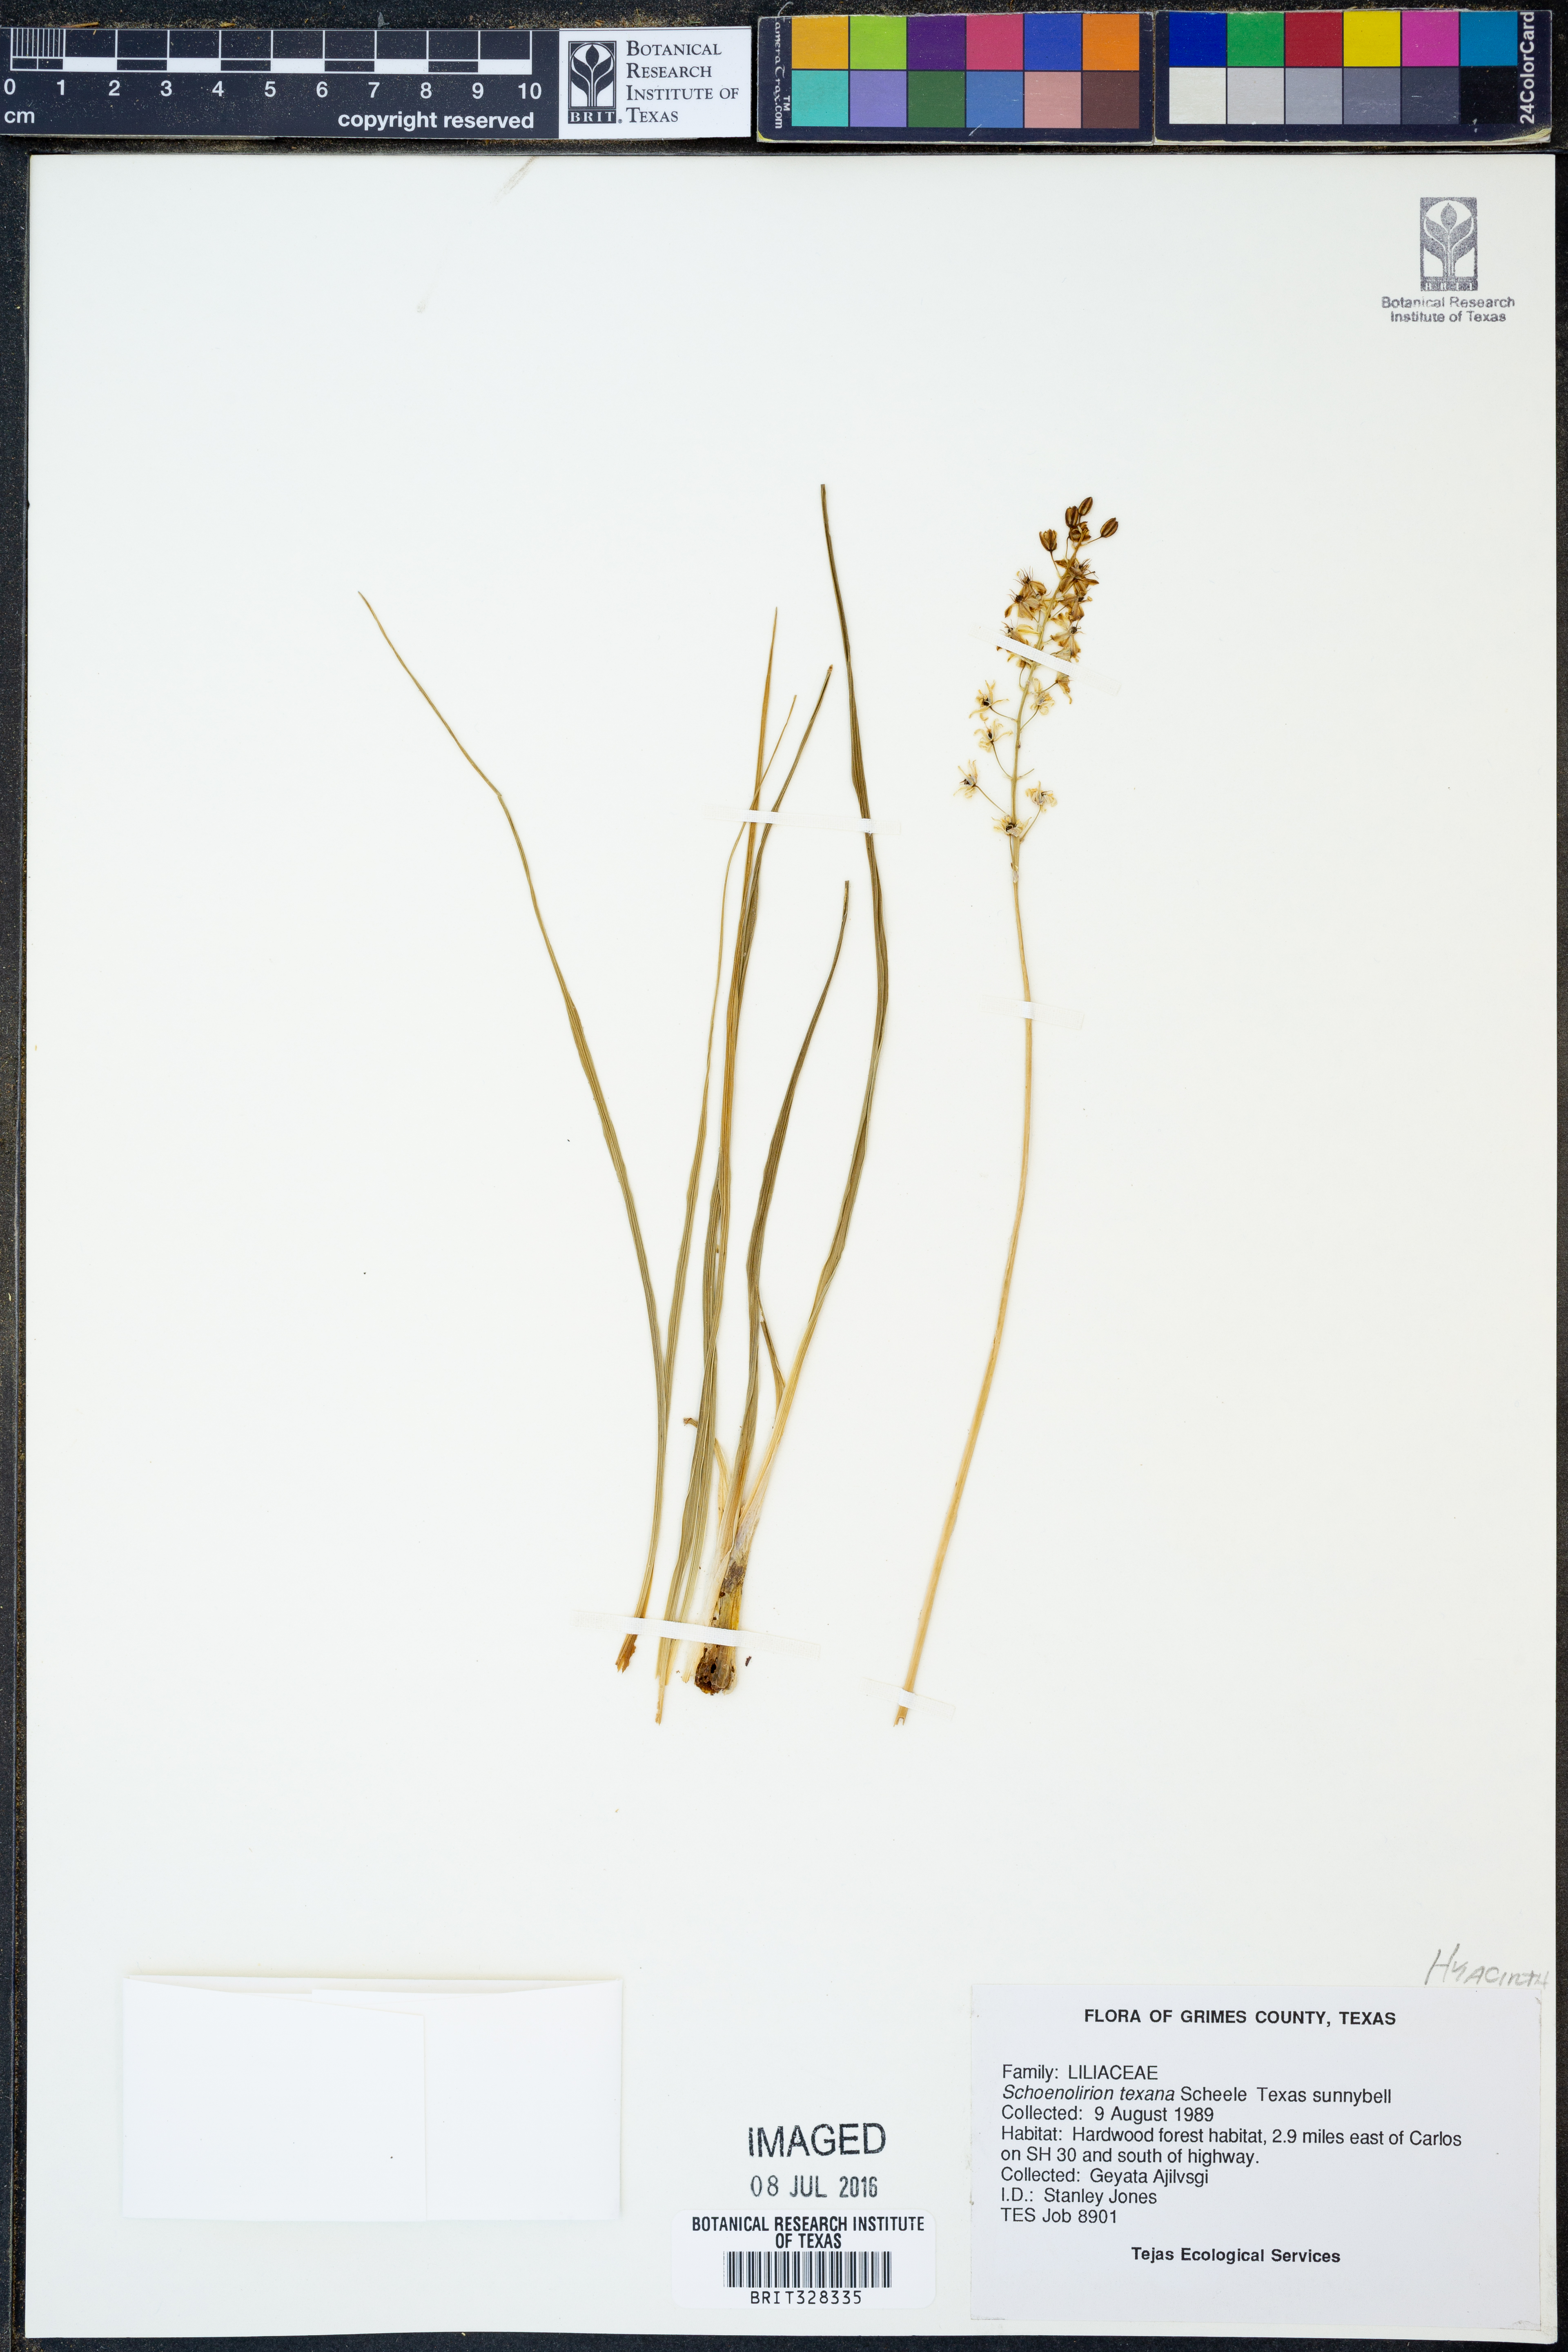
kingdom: Plantae
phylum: Tracheophyta
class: Liliopsida
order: Asparagales
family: Asparagaceae
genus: Camassia
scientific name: Camassia scilloides
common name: Wild hyacinth
